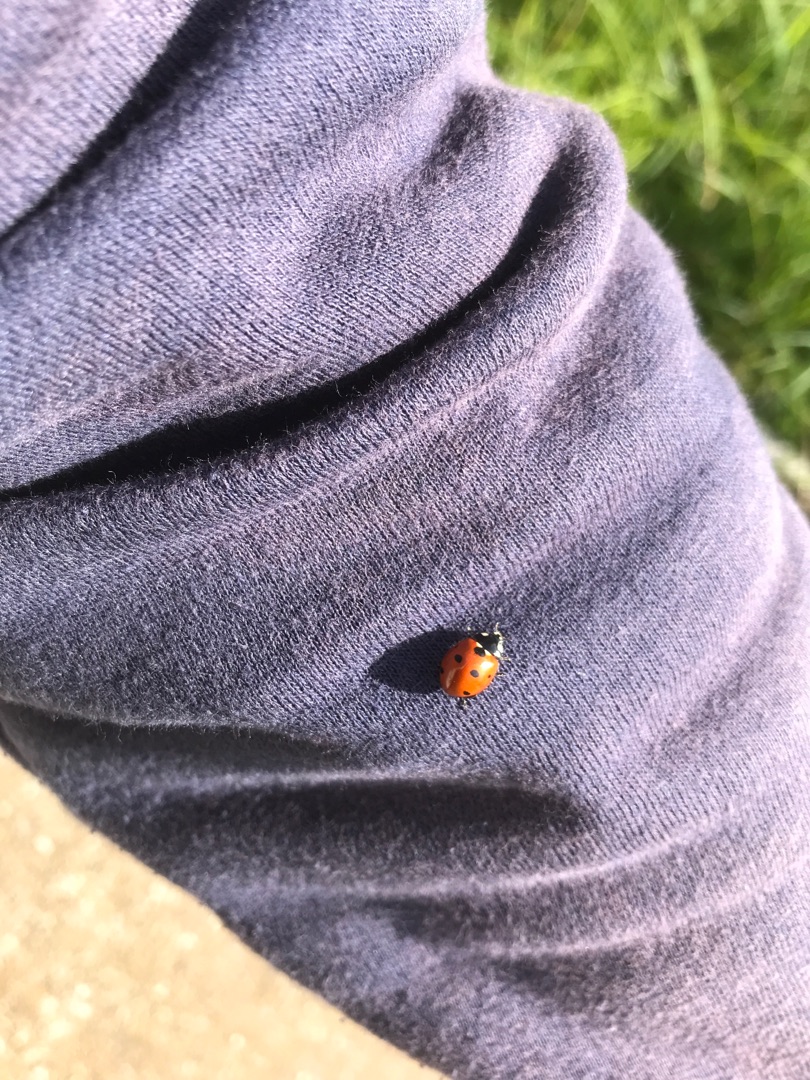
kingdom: Animalia
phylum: Arthropoda
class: Insecta
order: Coleoptera
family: Coccinellidae
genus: Coccinella
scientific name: Coccinella septempunctata
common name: Syvplettet mariehøne
